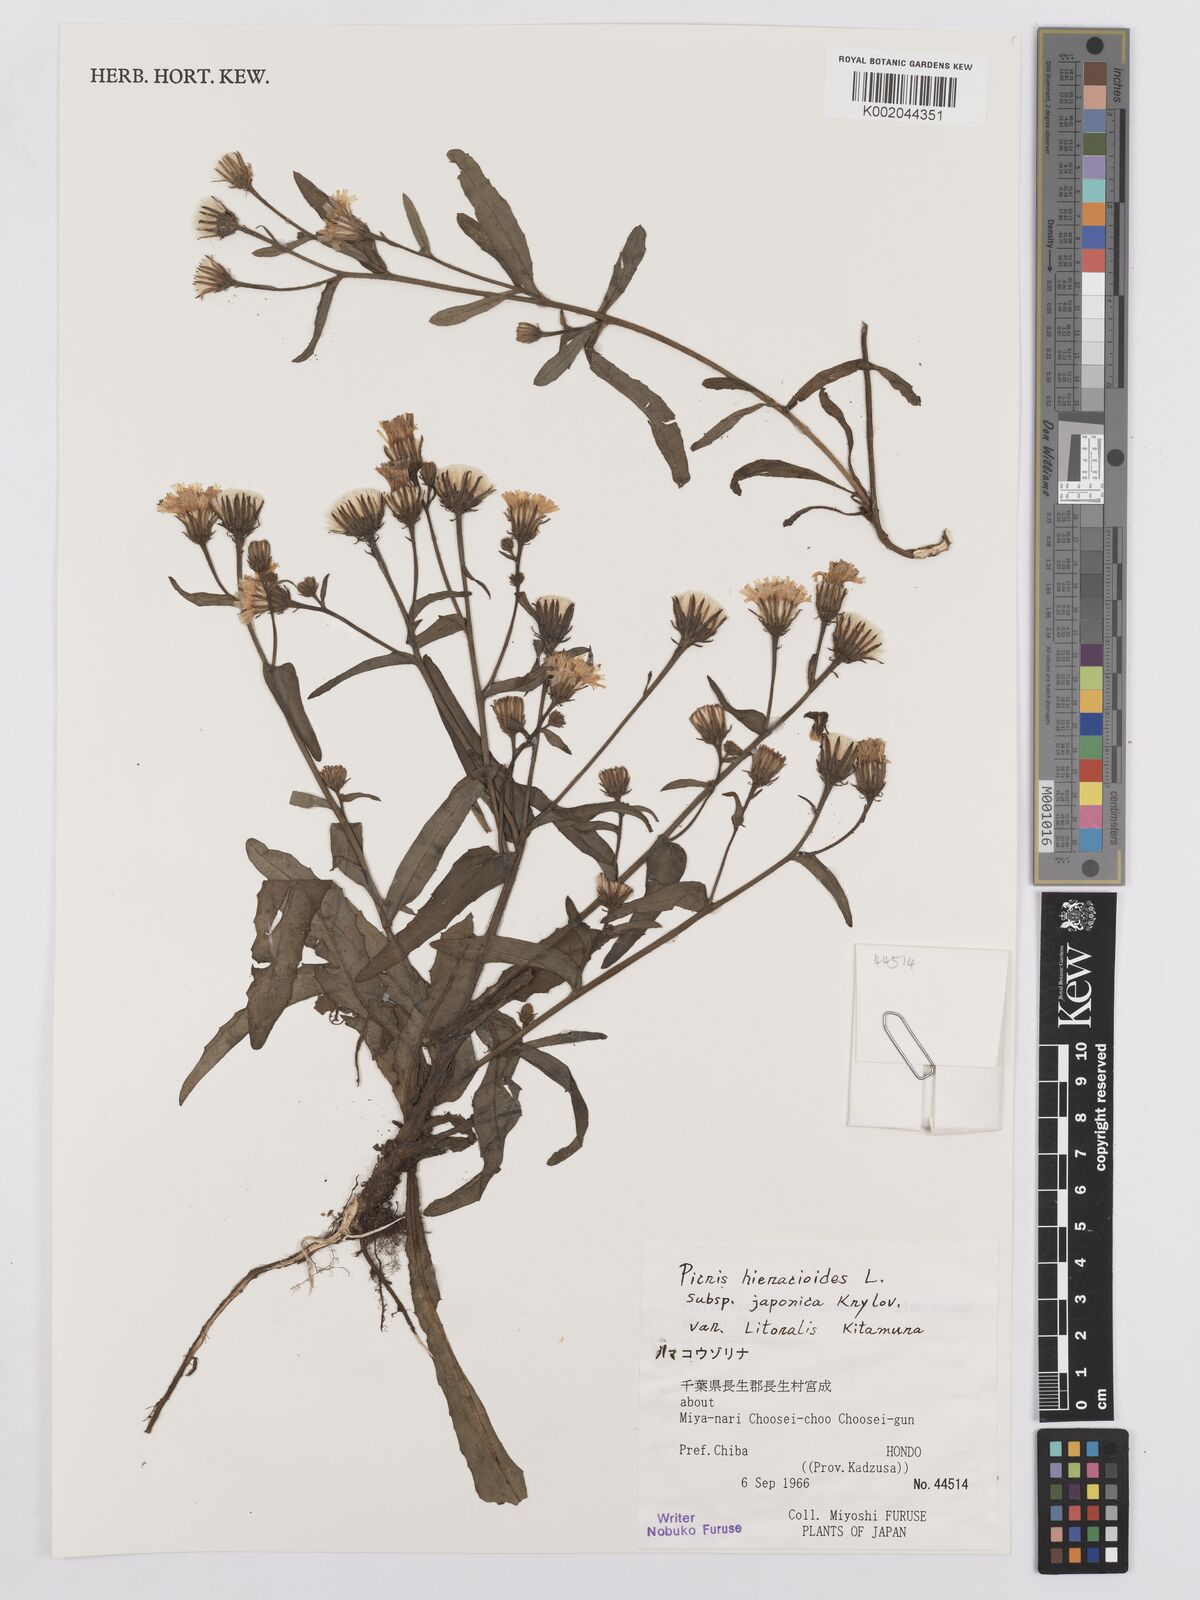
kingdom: Plantae
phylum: Tracheophyta
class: Magnoliopsida
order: Asterales
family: Asteraceae
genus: Picris
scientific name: Picris hieracioides
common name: Hawkweed oxtongue
